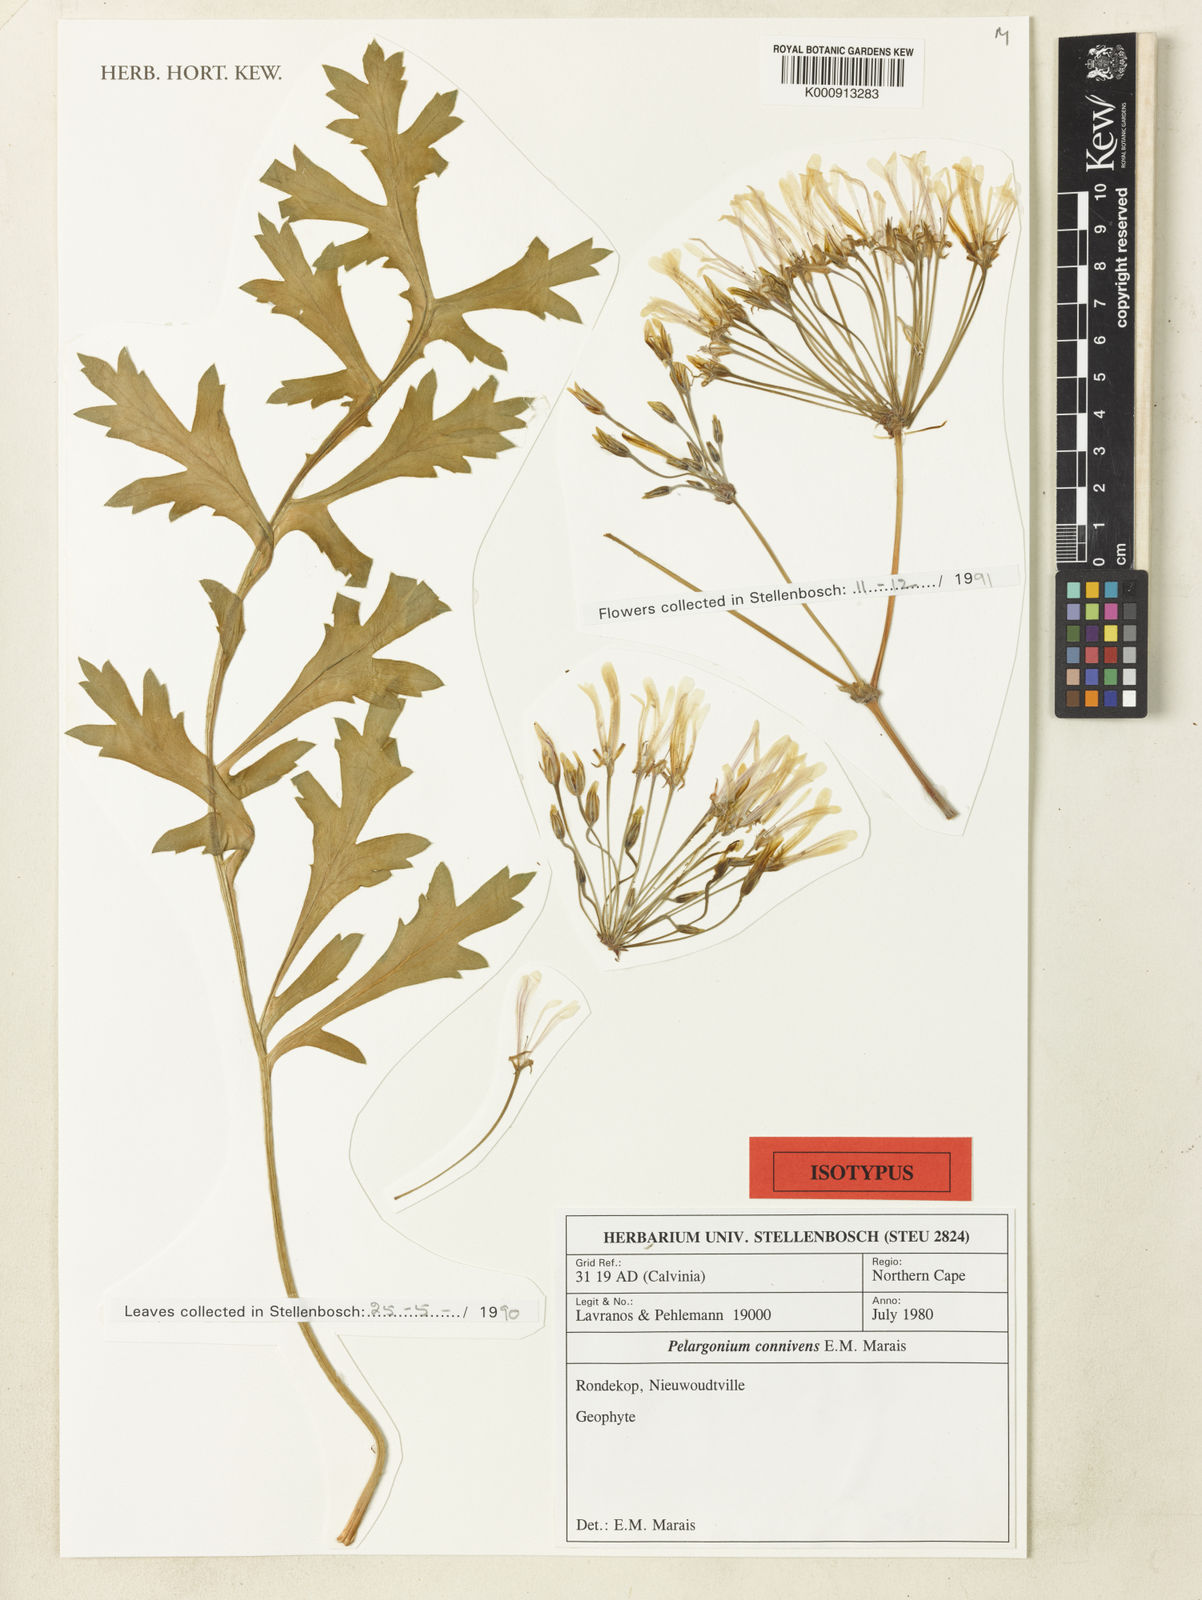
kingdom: Plantae
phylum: Tracheophyta
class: Magnoliopsida
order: Geraniales
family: Geraniaceae
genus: Pelargonium
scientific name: Pelargonium connivens
